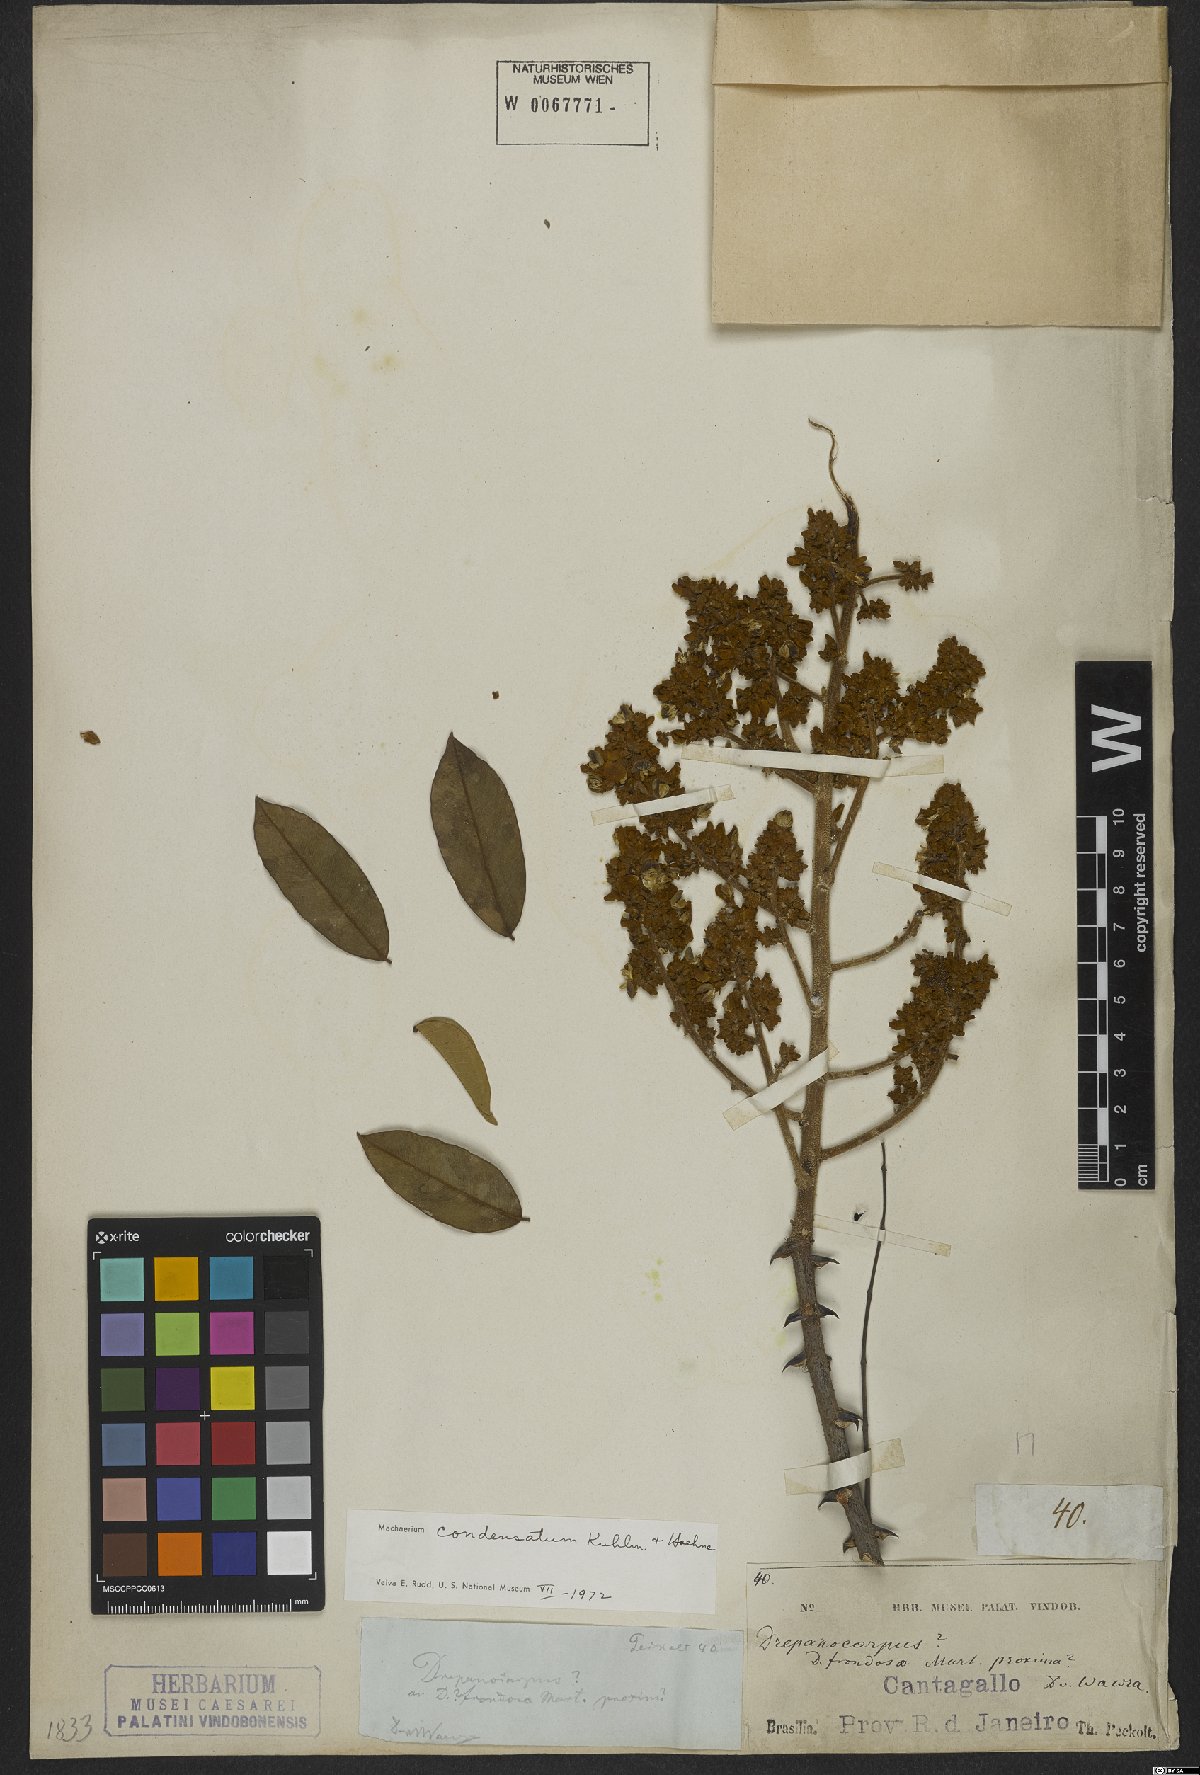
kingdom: Plantae
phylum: Tracheophyta
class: Magnoliopsida
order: Fabales
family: Fabaceae
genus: Machaerium
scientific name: Machaerium condensatum
